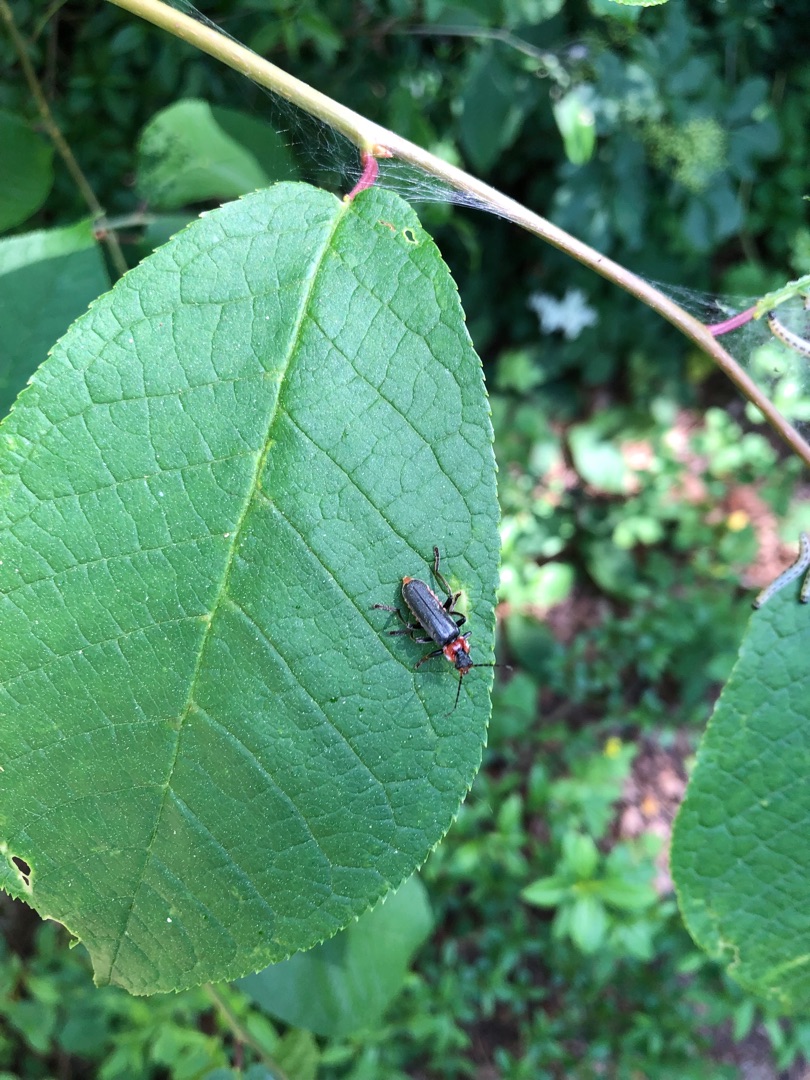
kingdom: Animalia
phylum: Arthropoda
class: Insecta
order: Coleoptera
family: Cantharidae
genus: Cantharis
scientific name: Cantharis fusca
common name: Stor blødvinge
